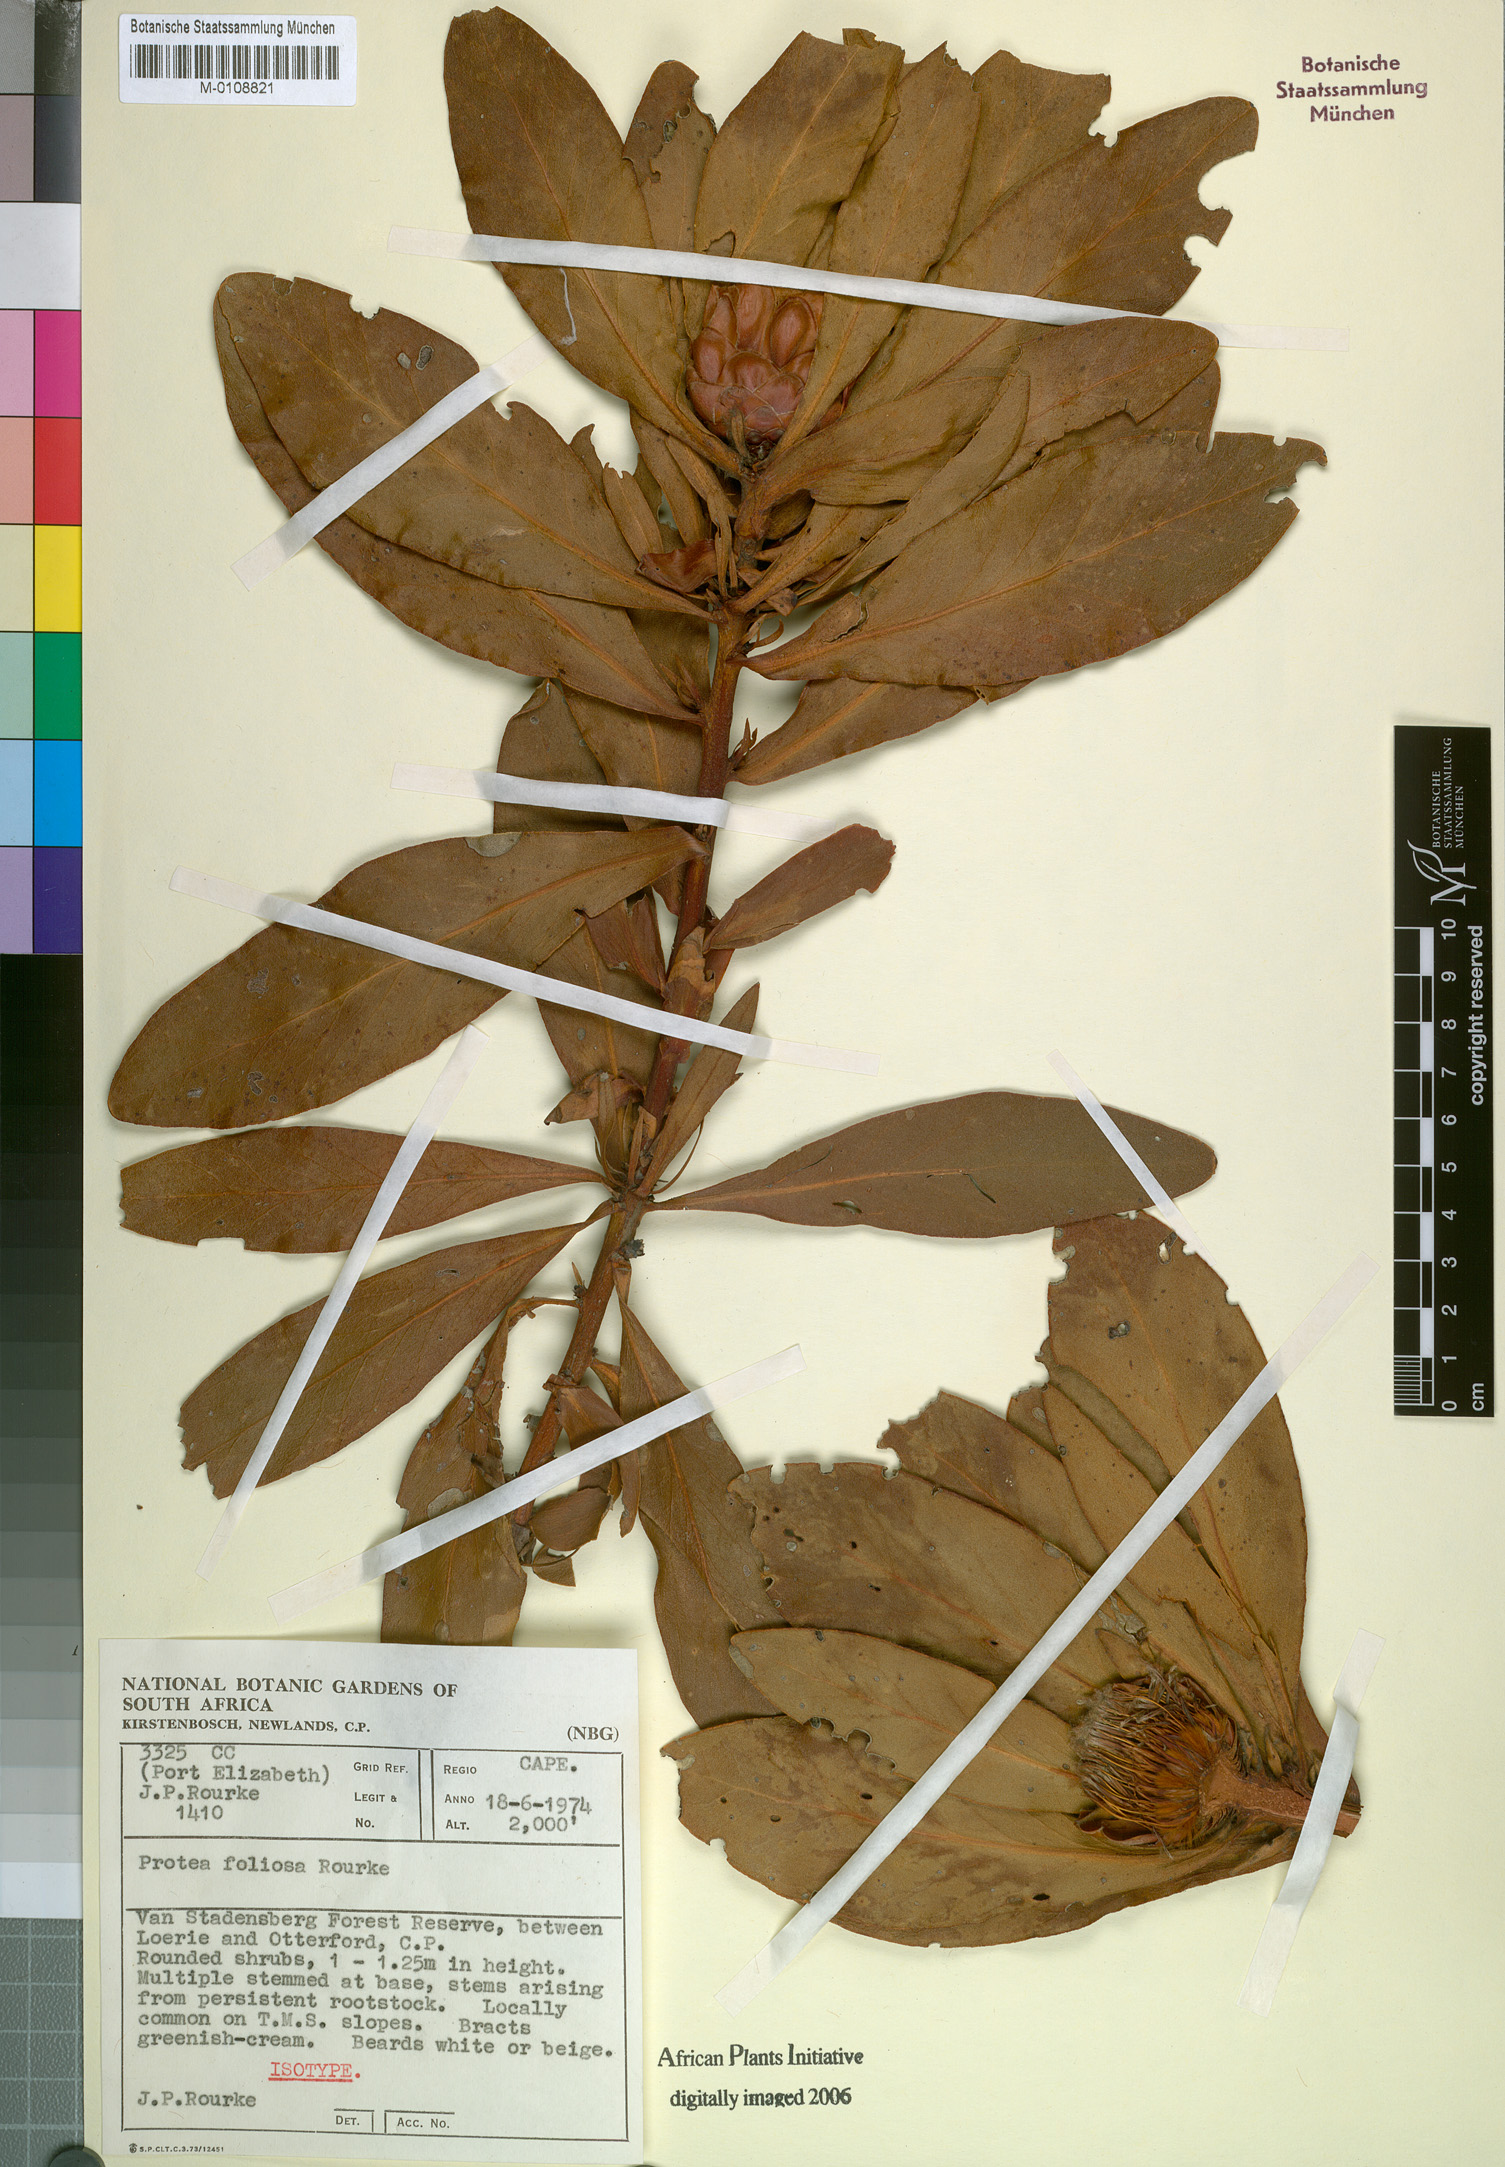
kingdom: Plantae
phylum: Tracheophyta
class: Magnoliopsida
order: Proteales
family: Proteaceae
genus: Protea
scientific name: Protea foliosa
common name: Leafy sugarbush
